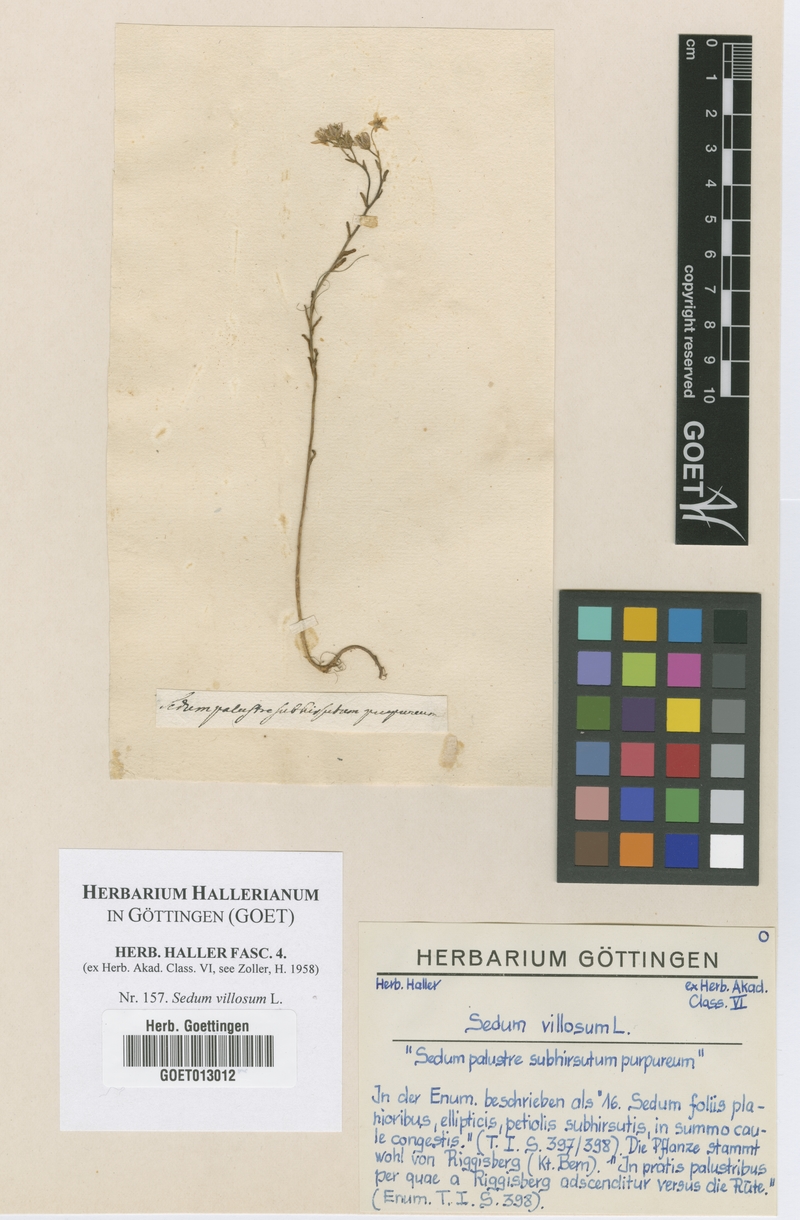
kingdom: Plantae
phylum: Tracheophyta
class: Magnoliopsida
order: Saxifragales
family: Crassulaceae
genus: Sedum
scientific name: Sedum villosum
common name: Hairy stonecrop
